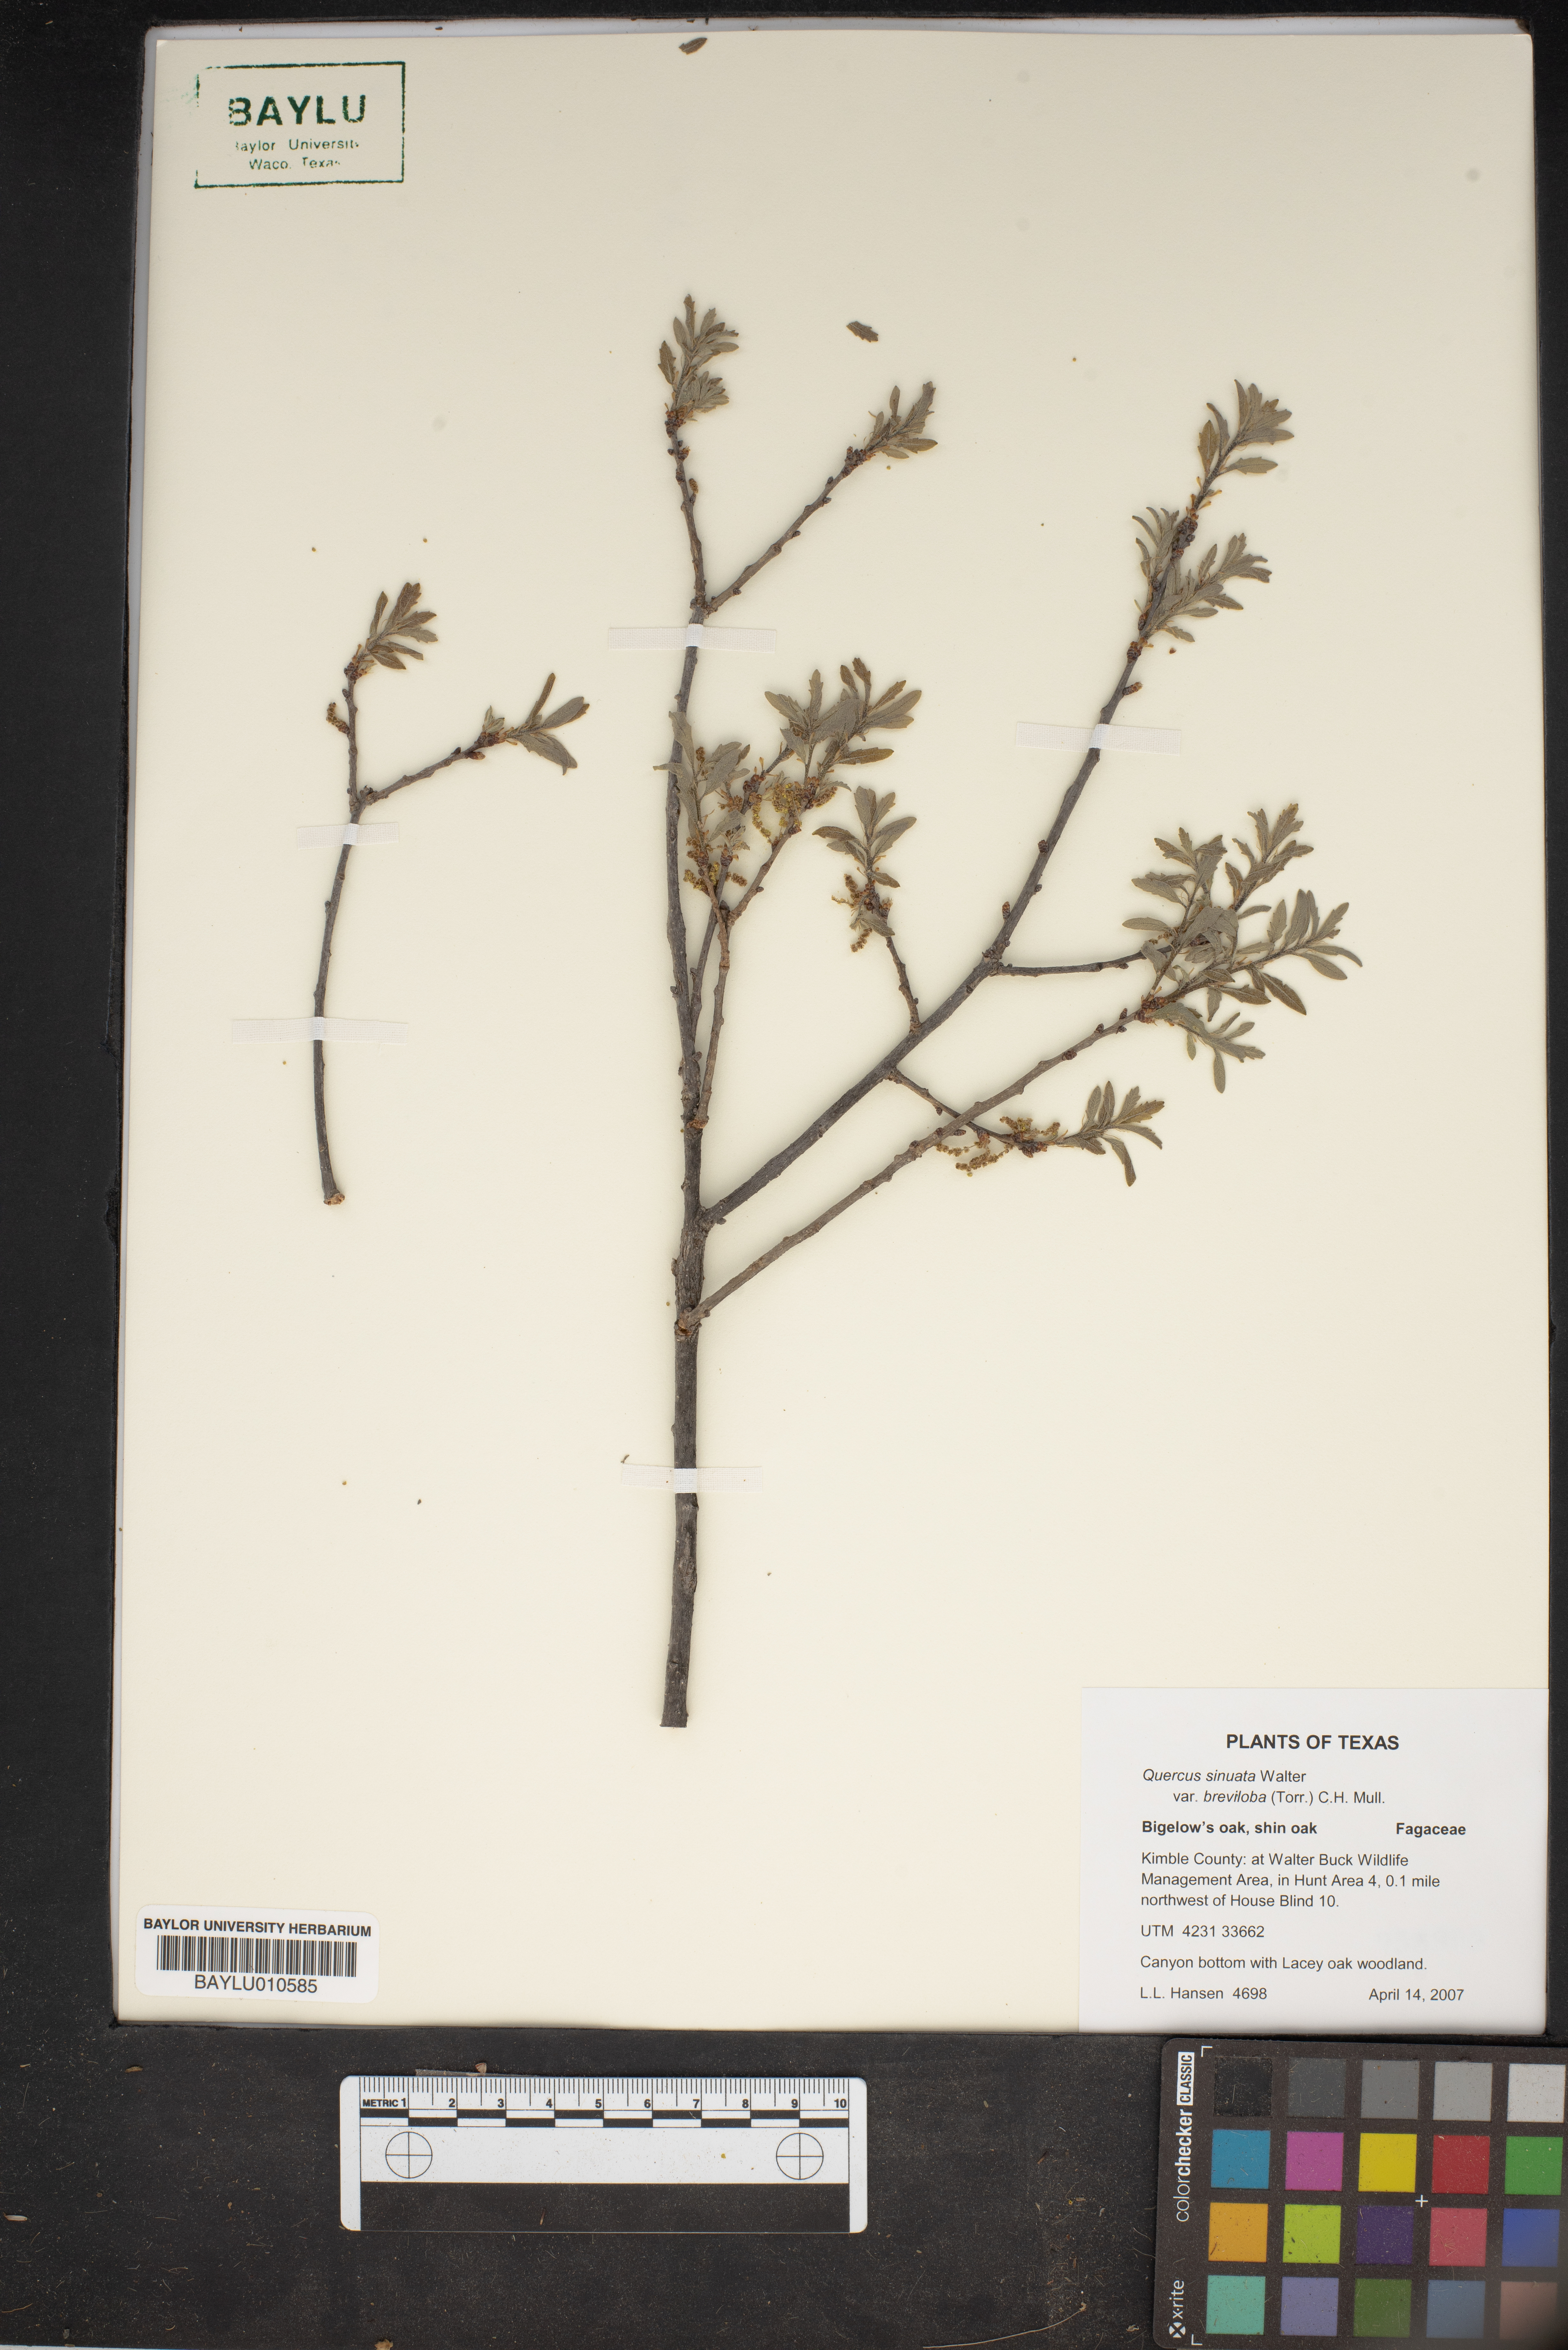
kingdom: Plantae
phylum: Tracheophyta
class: Magnoliopsida
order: Fagales
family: Fagaceae
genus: Quercus
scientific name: Quercus sinuata
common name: Durand oak
